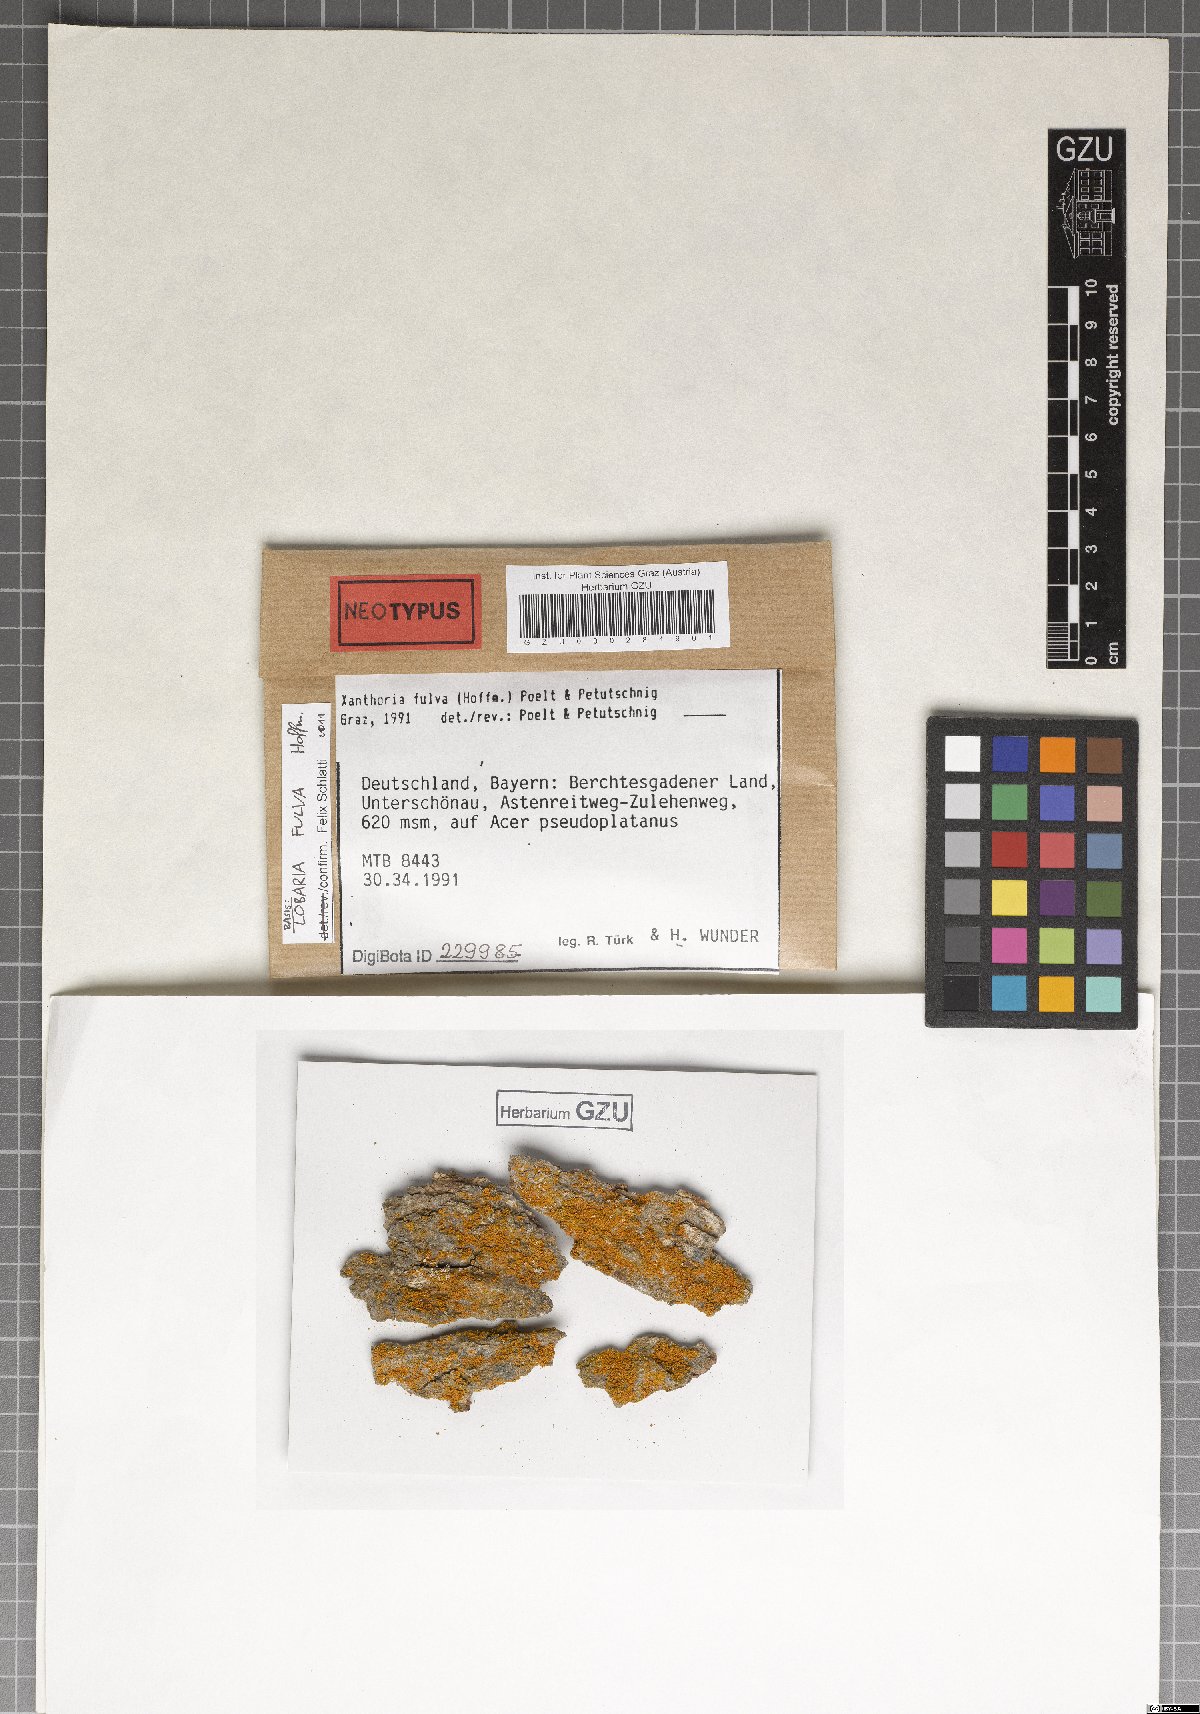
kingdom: Fungi
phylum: Ascomycota
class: Lecanoromycetes
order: Teloschistales
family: Teloschistaceae
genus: Gallowayella
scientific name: Gallowayella fulva
